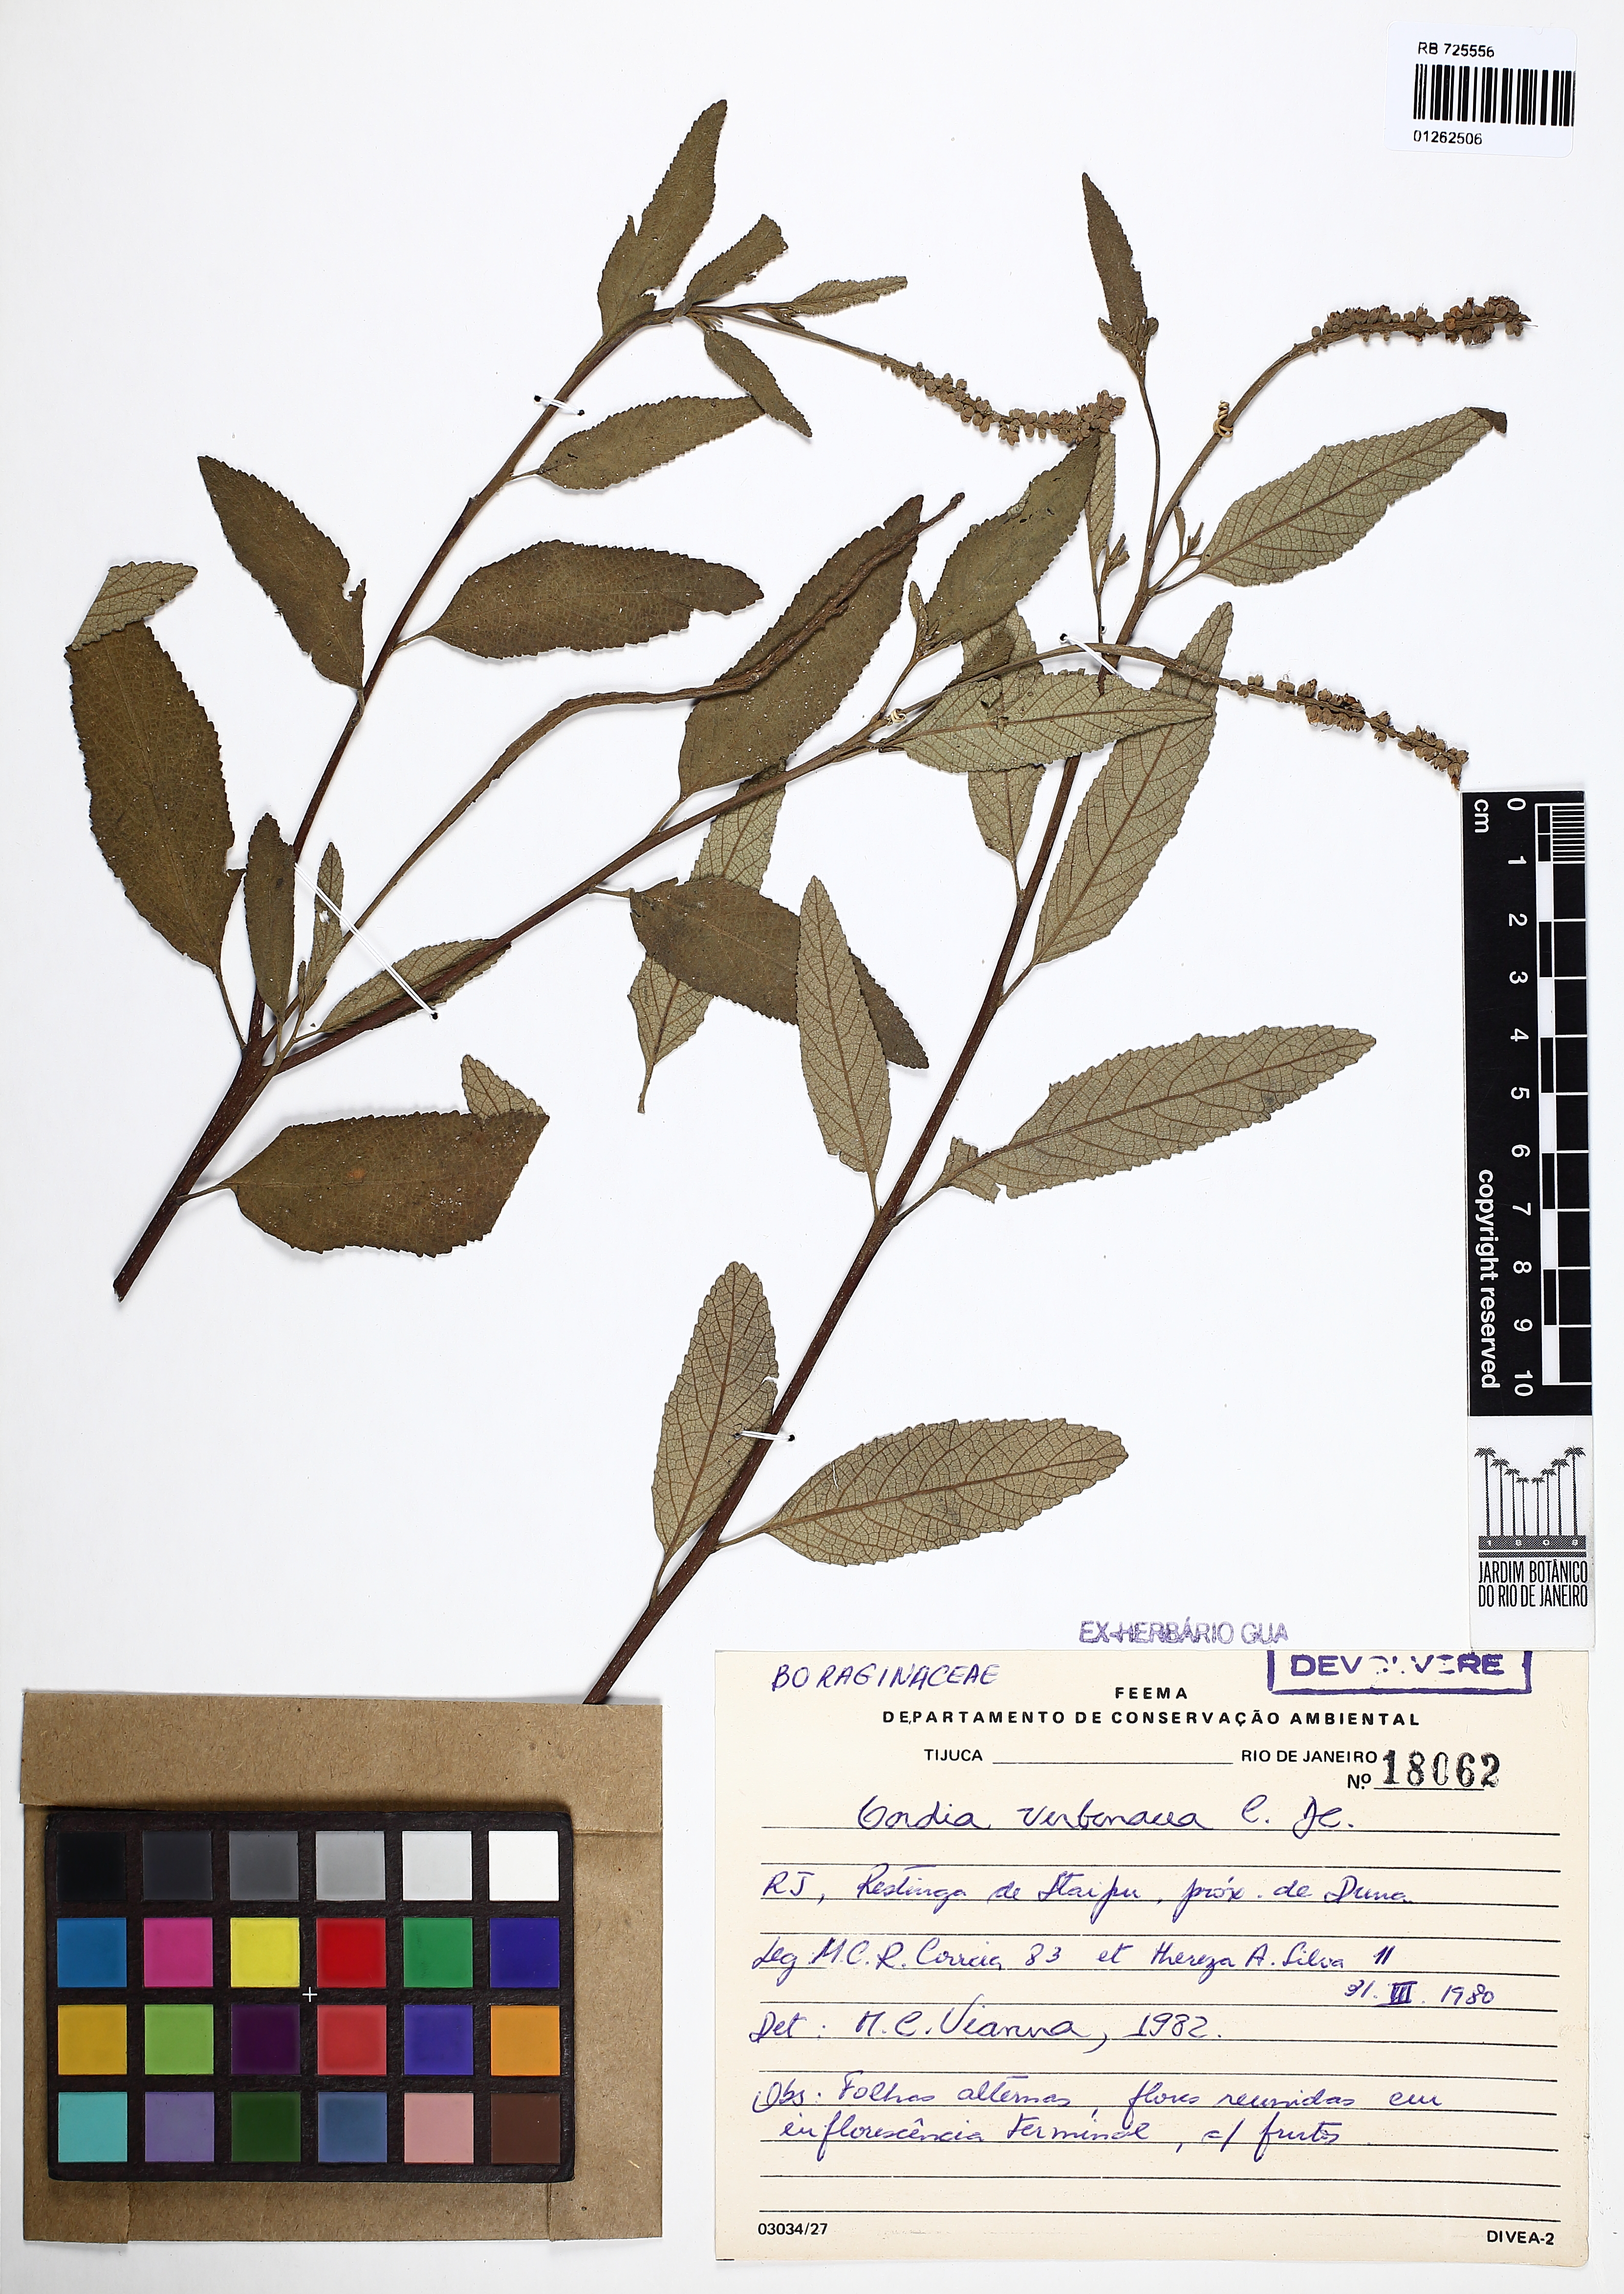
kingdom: Plantae
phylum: Tracheophyta
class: Magnoliopsida
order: Boraginales
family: Cordiaceae
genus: Varronia
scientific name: Varronia curassavica
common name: Black sage
